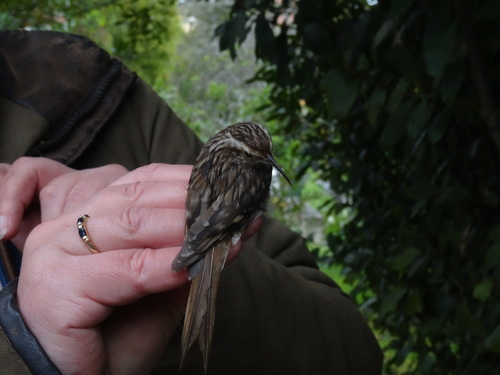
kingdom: Animalia
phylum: Chordata
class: Aves
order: Passeriformes
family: Certhiidae
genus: Certhia
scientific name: Certhia brachydactyla
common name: Short-toed treecreeper
